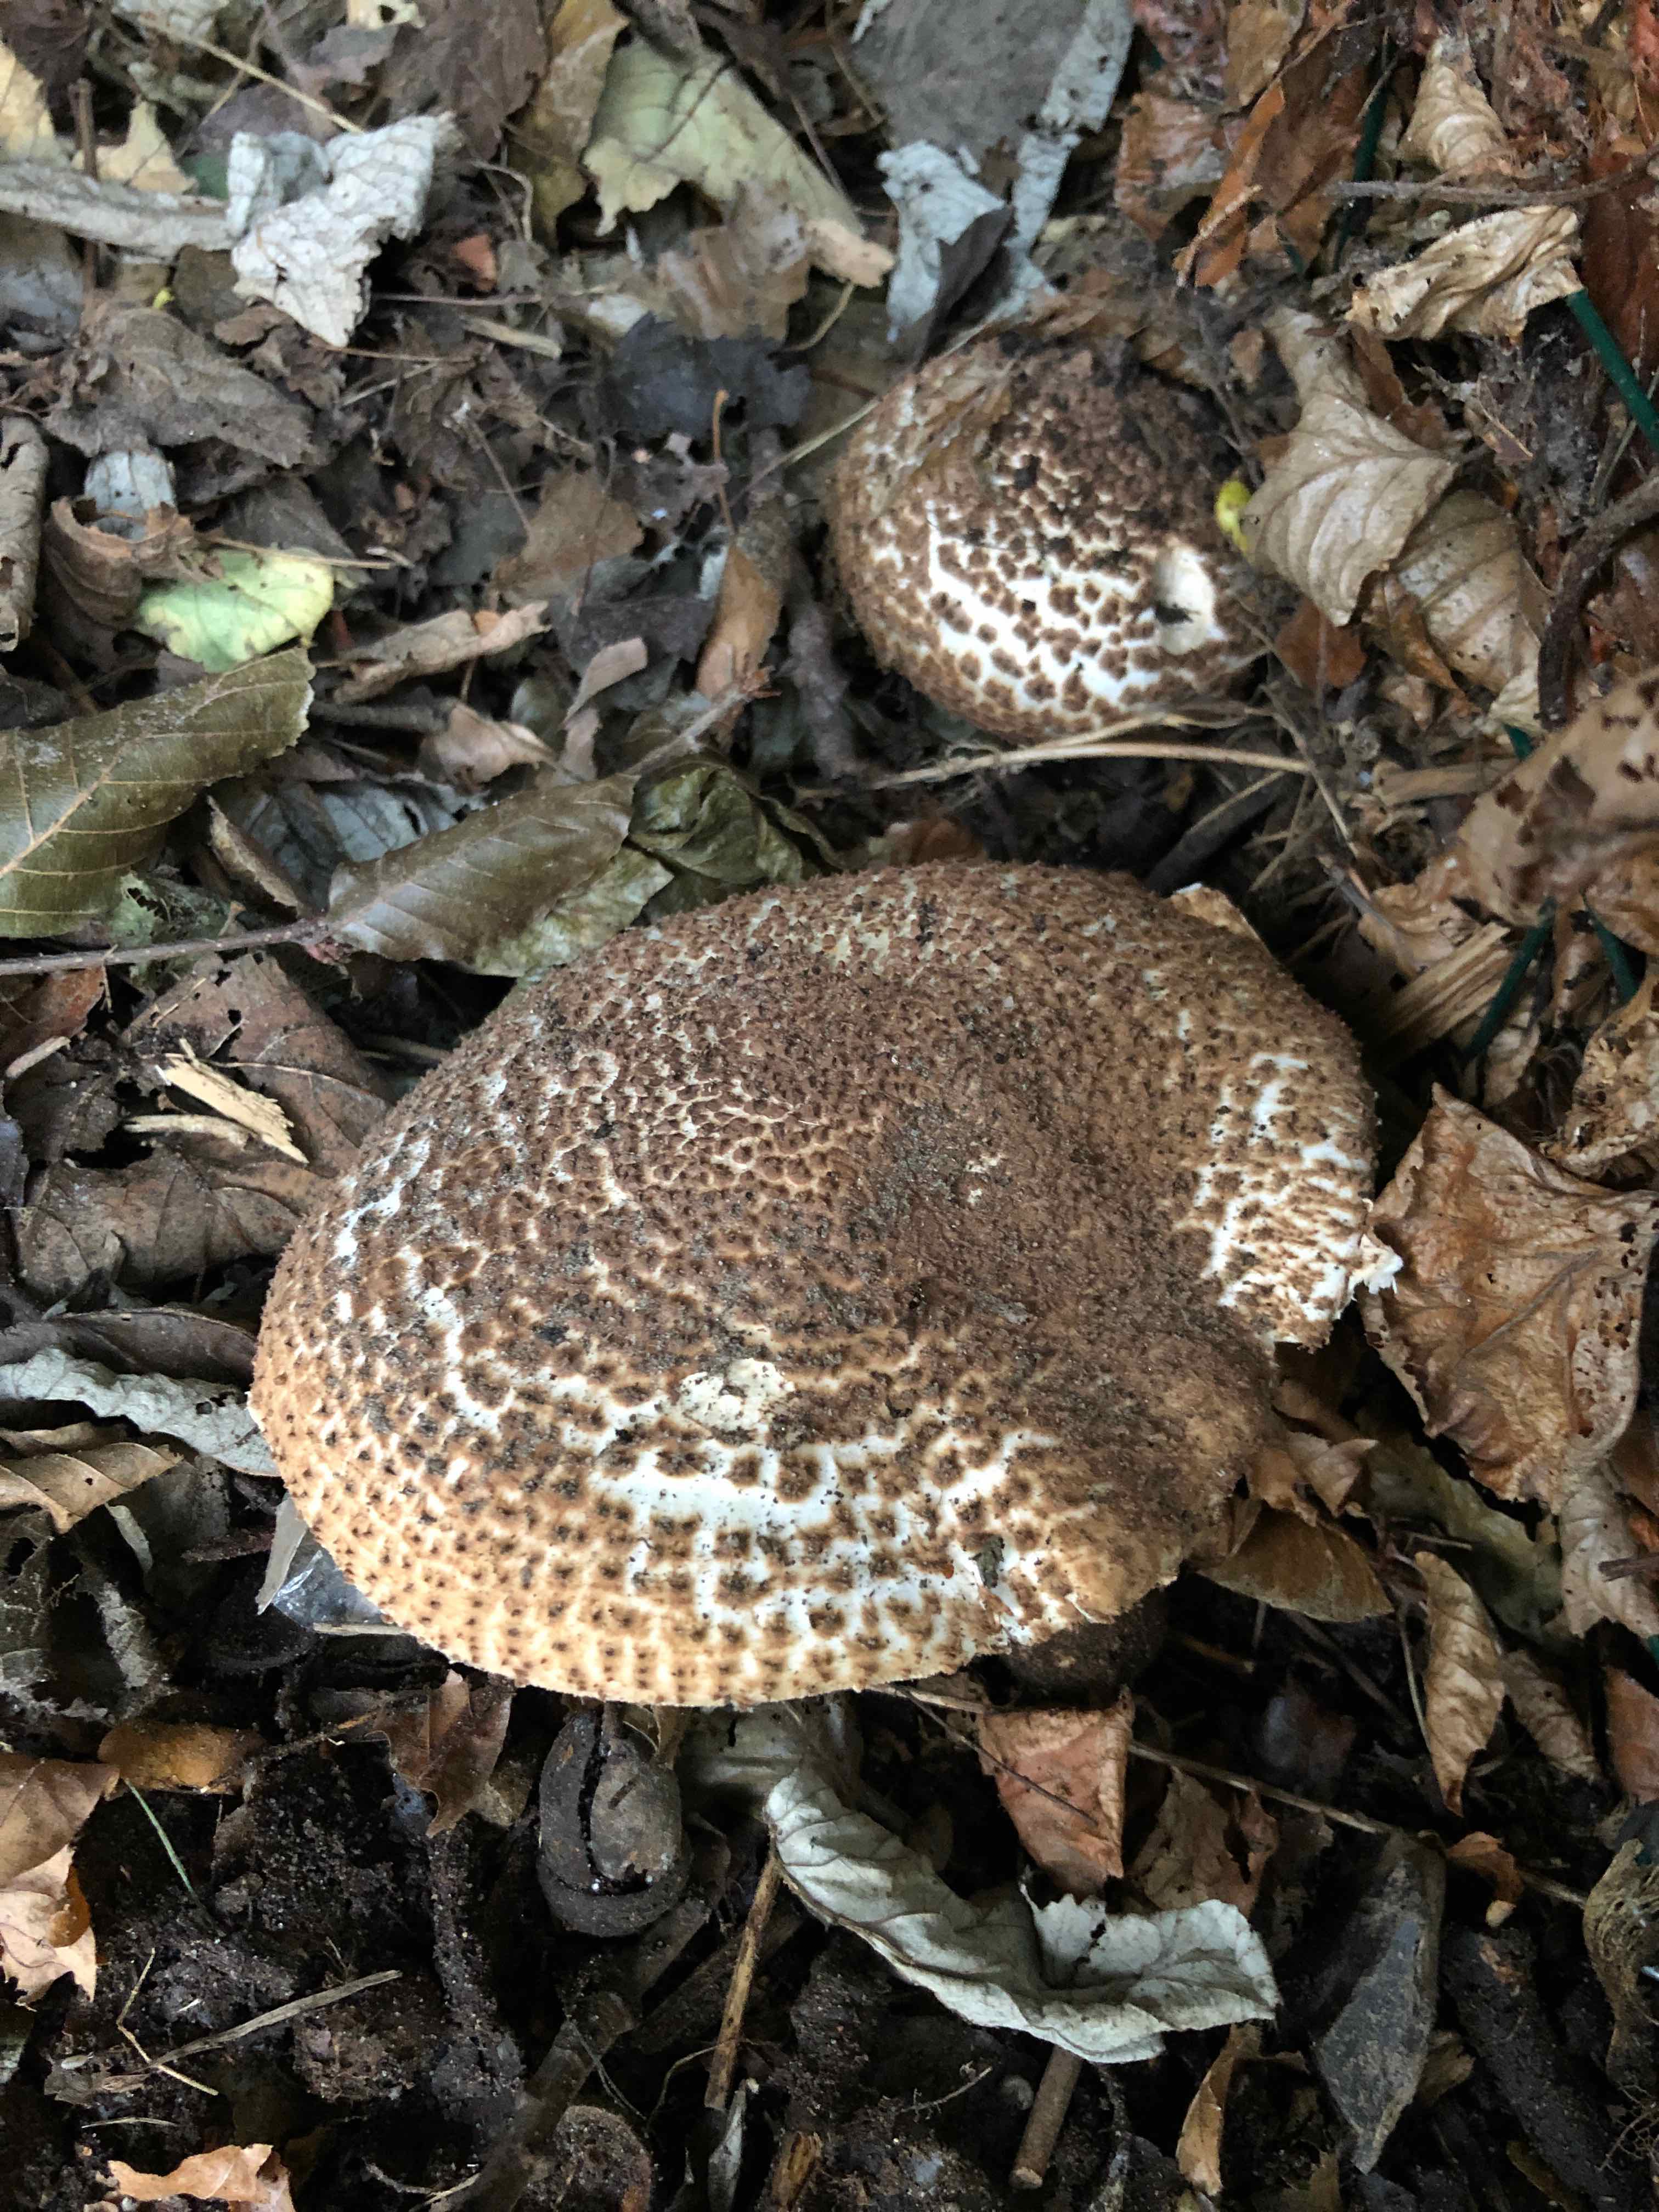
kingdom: Fungi
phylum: Basidiomycota
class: Agaricomycetes
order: Agaricales
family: Agaricaceae
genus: Echinoderma
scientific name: Echinoderma asperum
